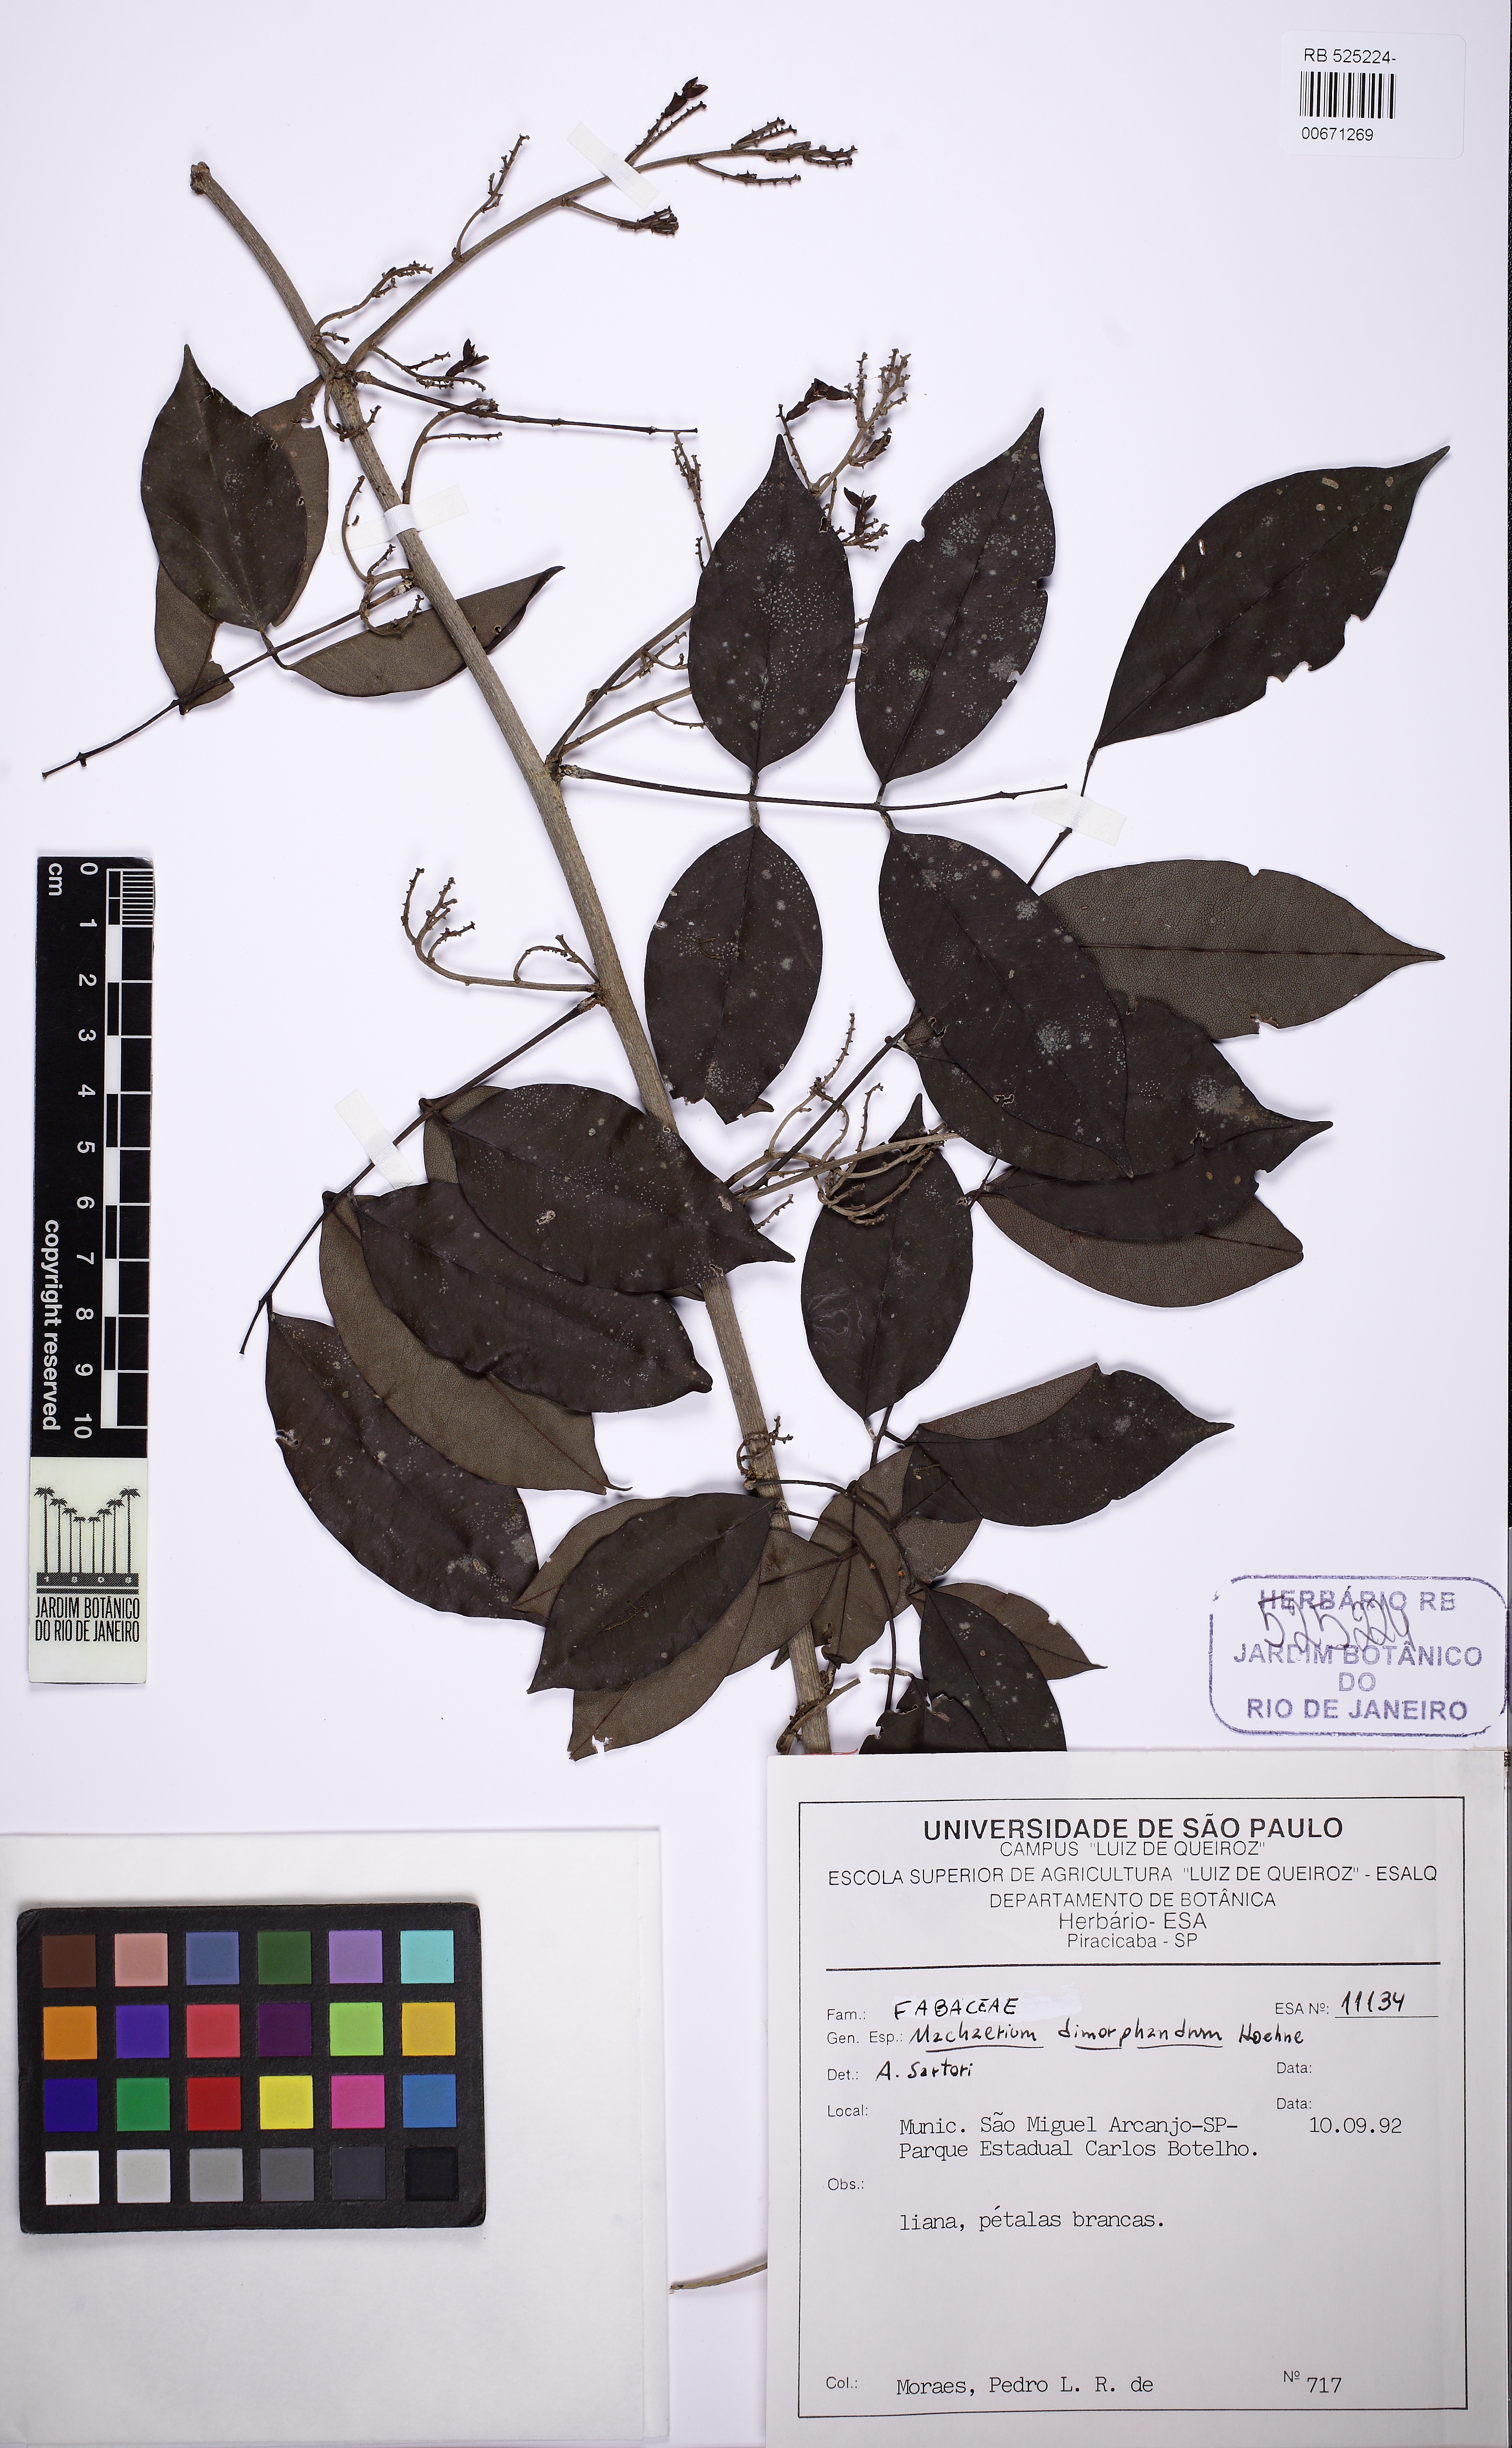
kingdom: Plantae
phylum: Tracheophyta
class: Magnoliopsida
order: Fabales
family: Fabaceae
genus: Machaerium
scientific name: Machaerium debile
